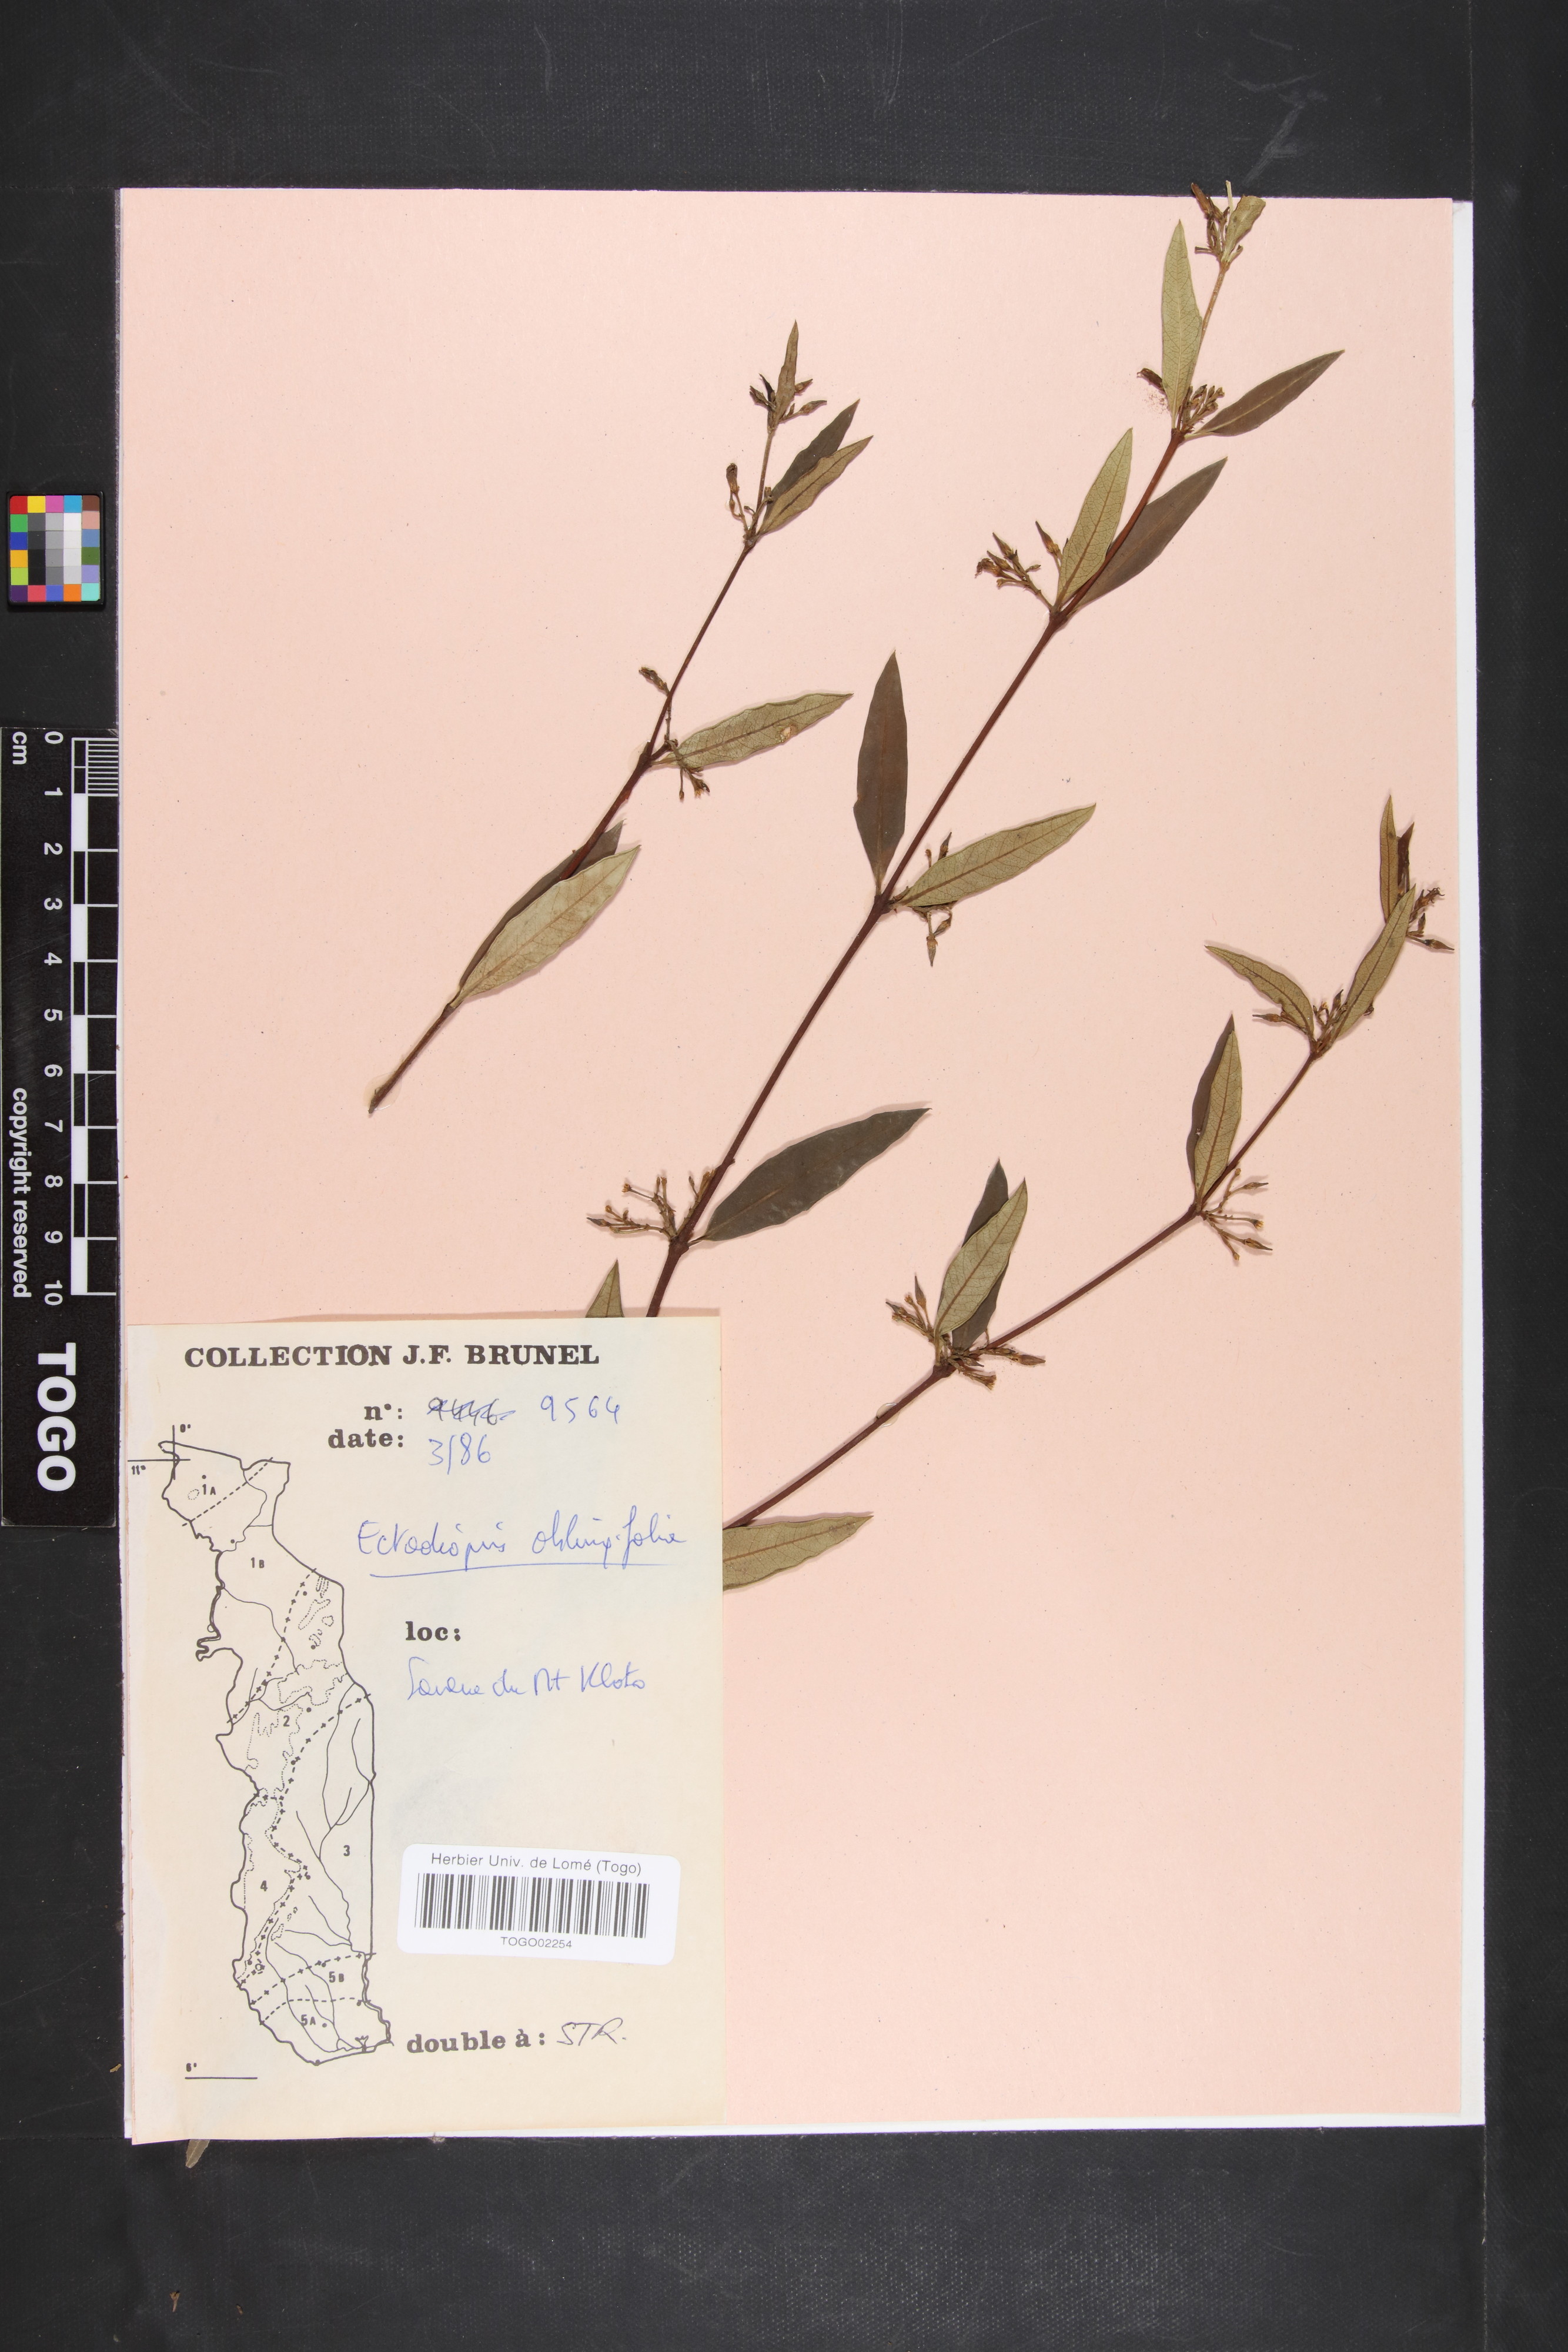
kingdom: Plantae
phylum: Tracheophyta
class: Magnoliopsida
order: Gentianales
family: Apocynaceae
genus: Cryptolepis
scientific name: Cryptolepis oblongifolia
